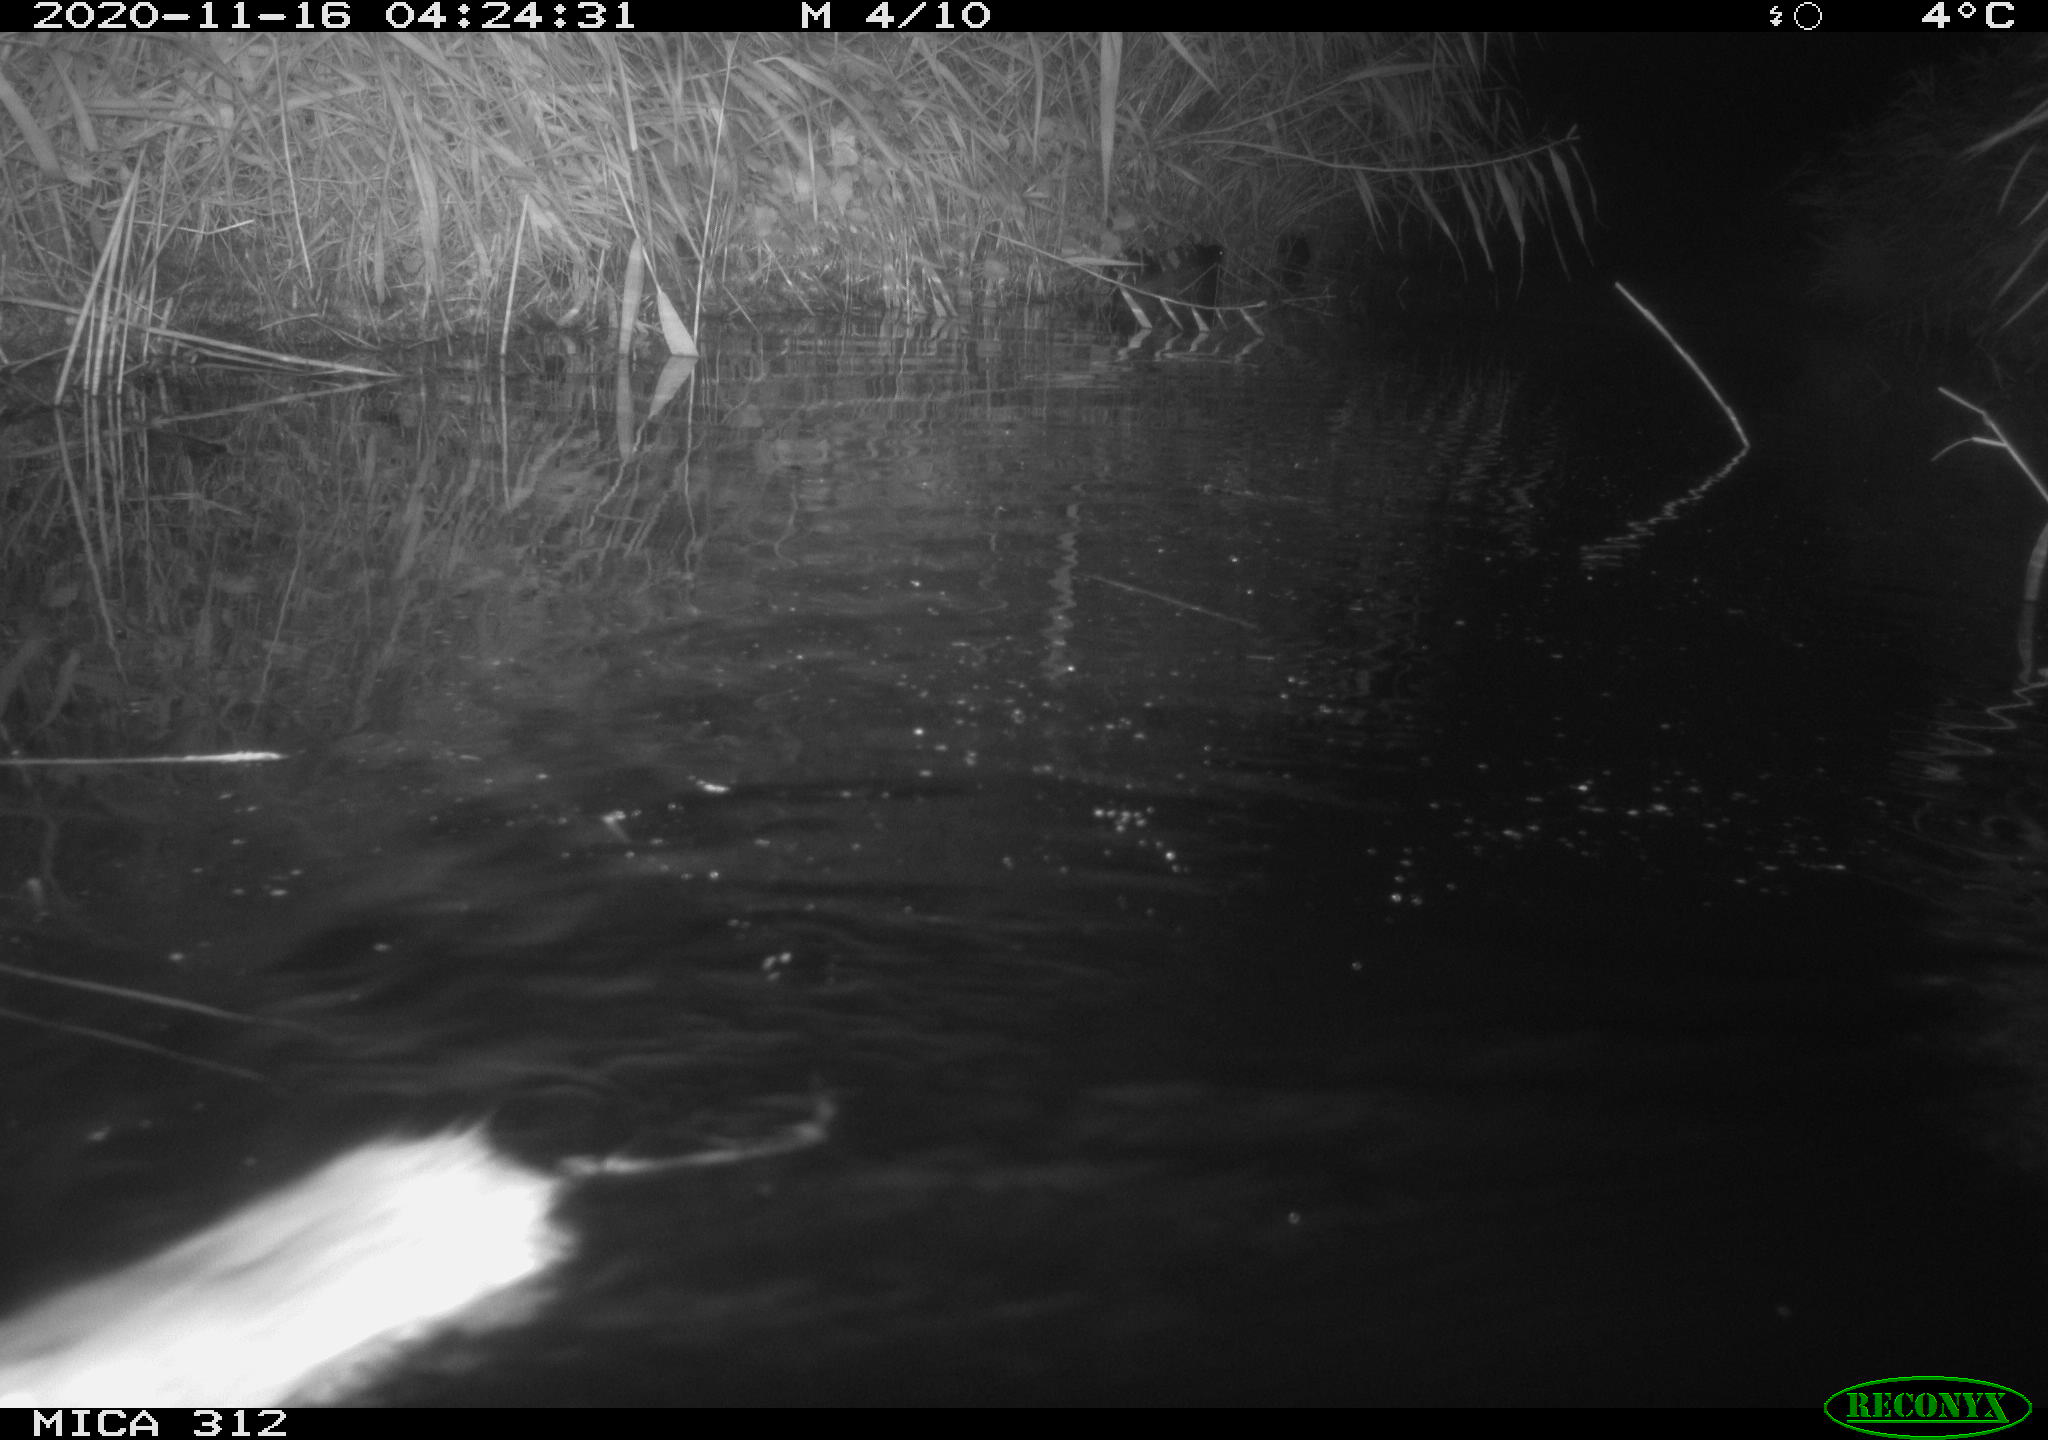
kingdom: Animalia
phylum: Chordata
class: Mammalia
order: Rodentia
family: Muridae
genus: Rattus
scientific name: Rattus norvegicus
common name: Brown rat
